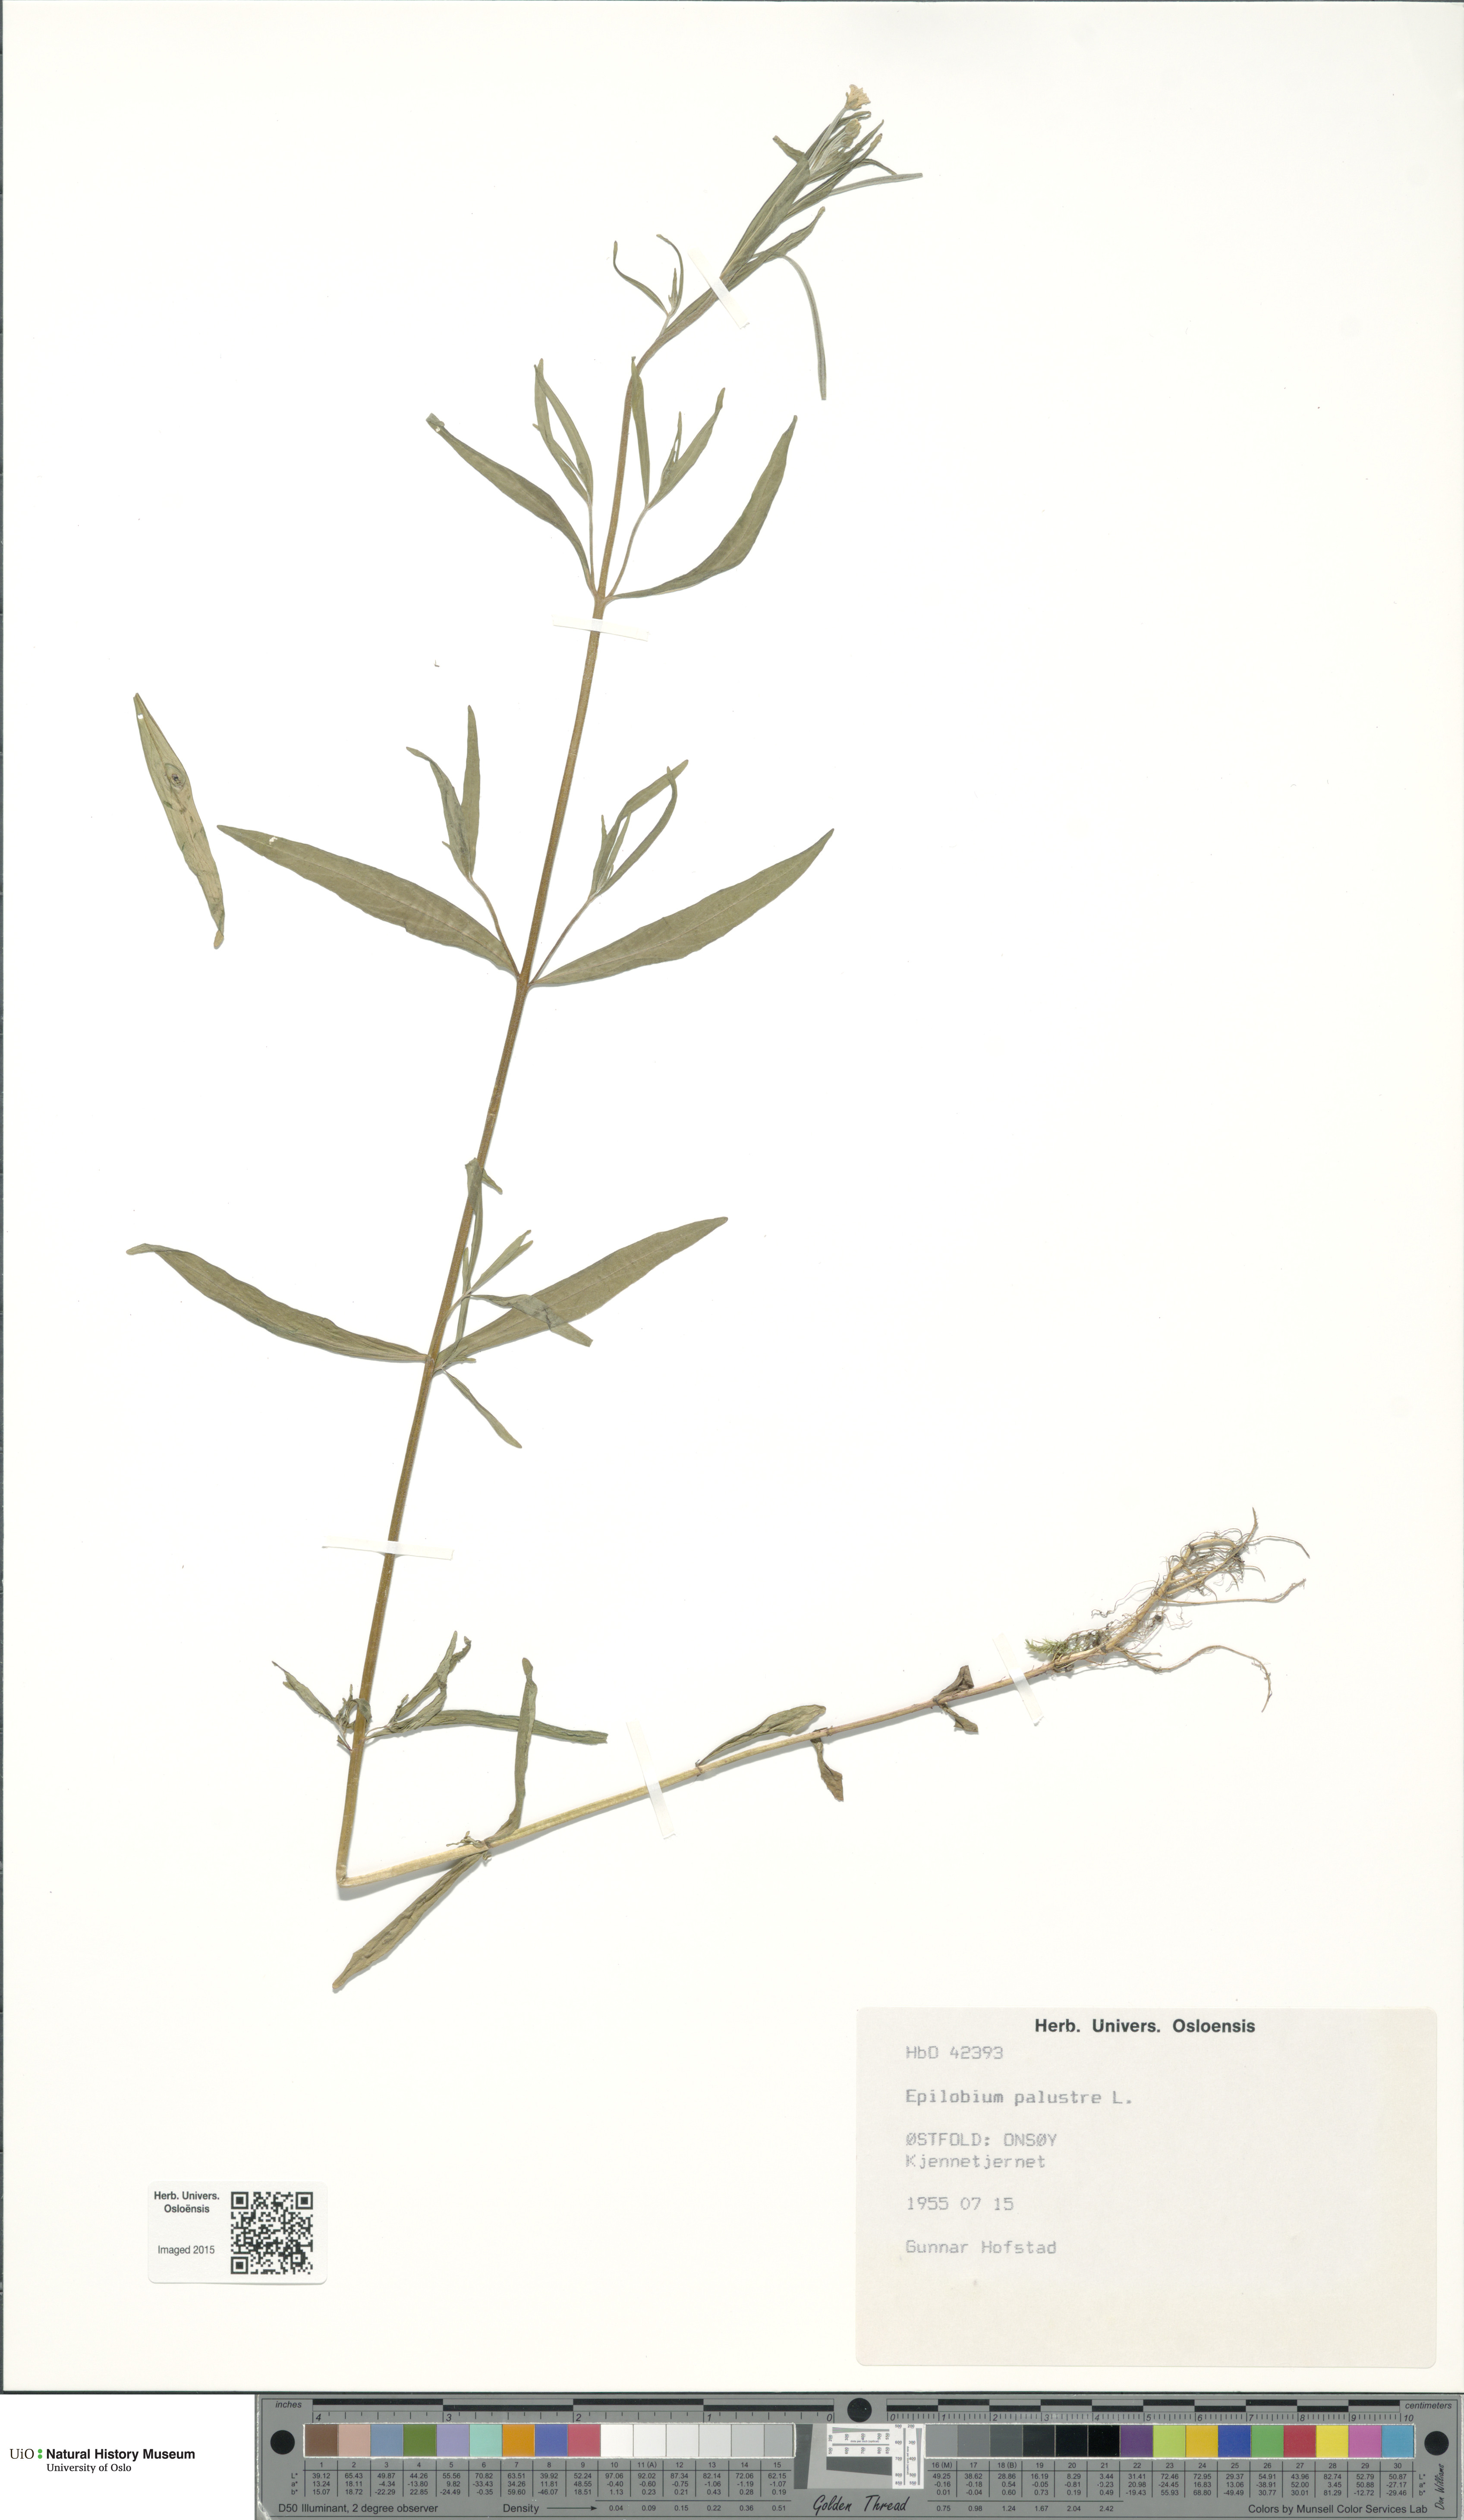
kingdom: Plantae
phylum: Tracheophyta
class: Magnoliopsida
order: Myrtales
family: Onagraceae
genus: Epilobium
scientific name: Epilobium palustre
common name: Marsh willowherb
